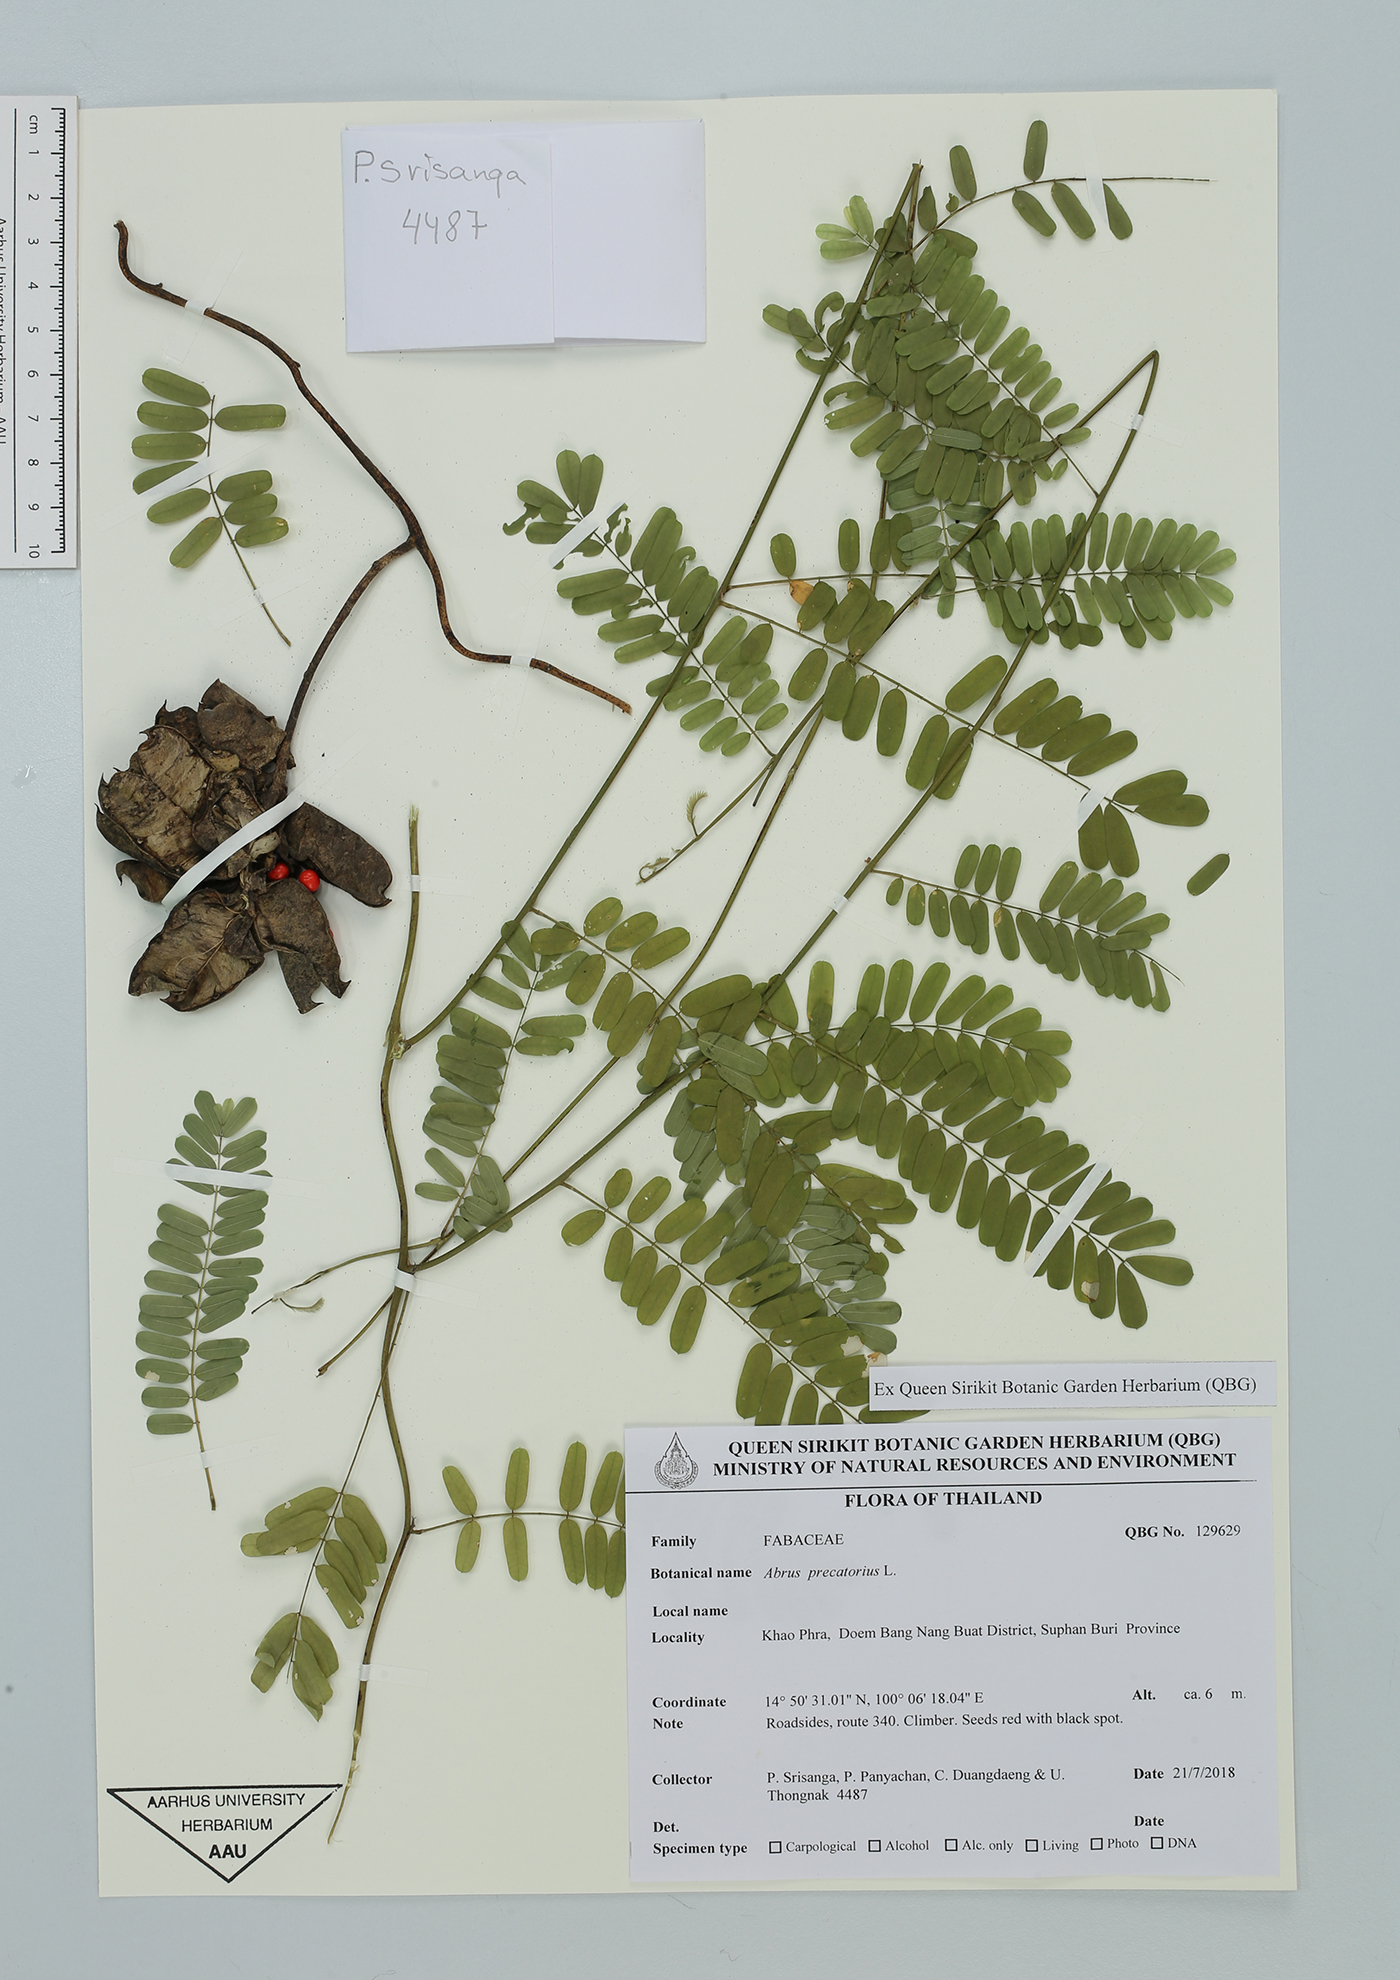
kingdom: Plantae
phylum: Tracheophyta
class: Magnoliopsida
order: Fabales
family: Fabaceae
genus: Abrus
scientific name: Abrus precatorius
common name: Rosarypea
